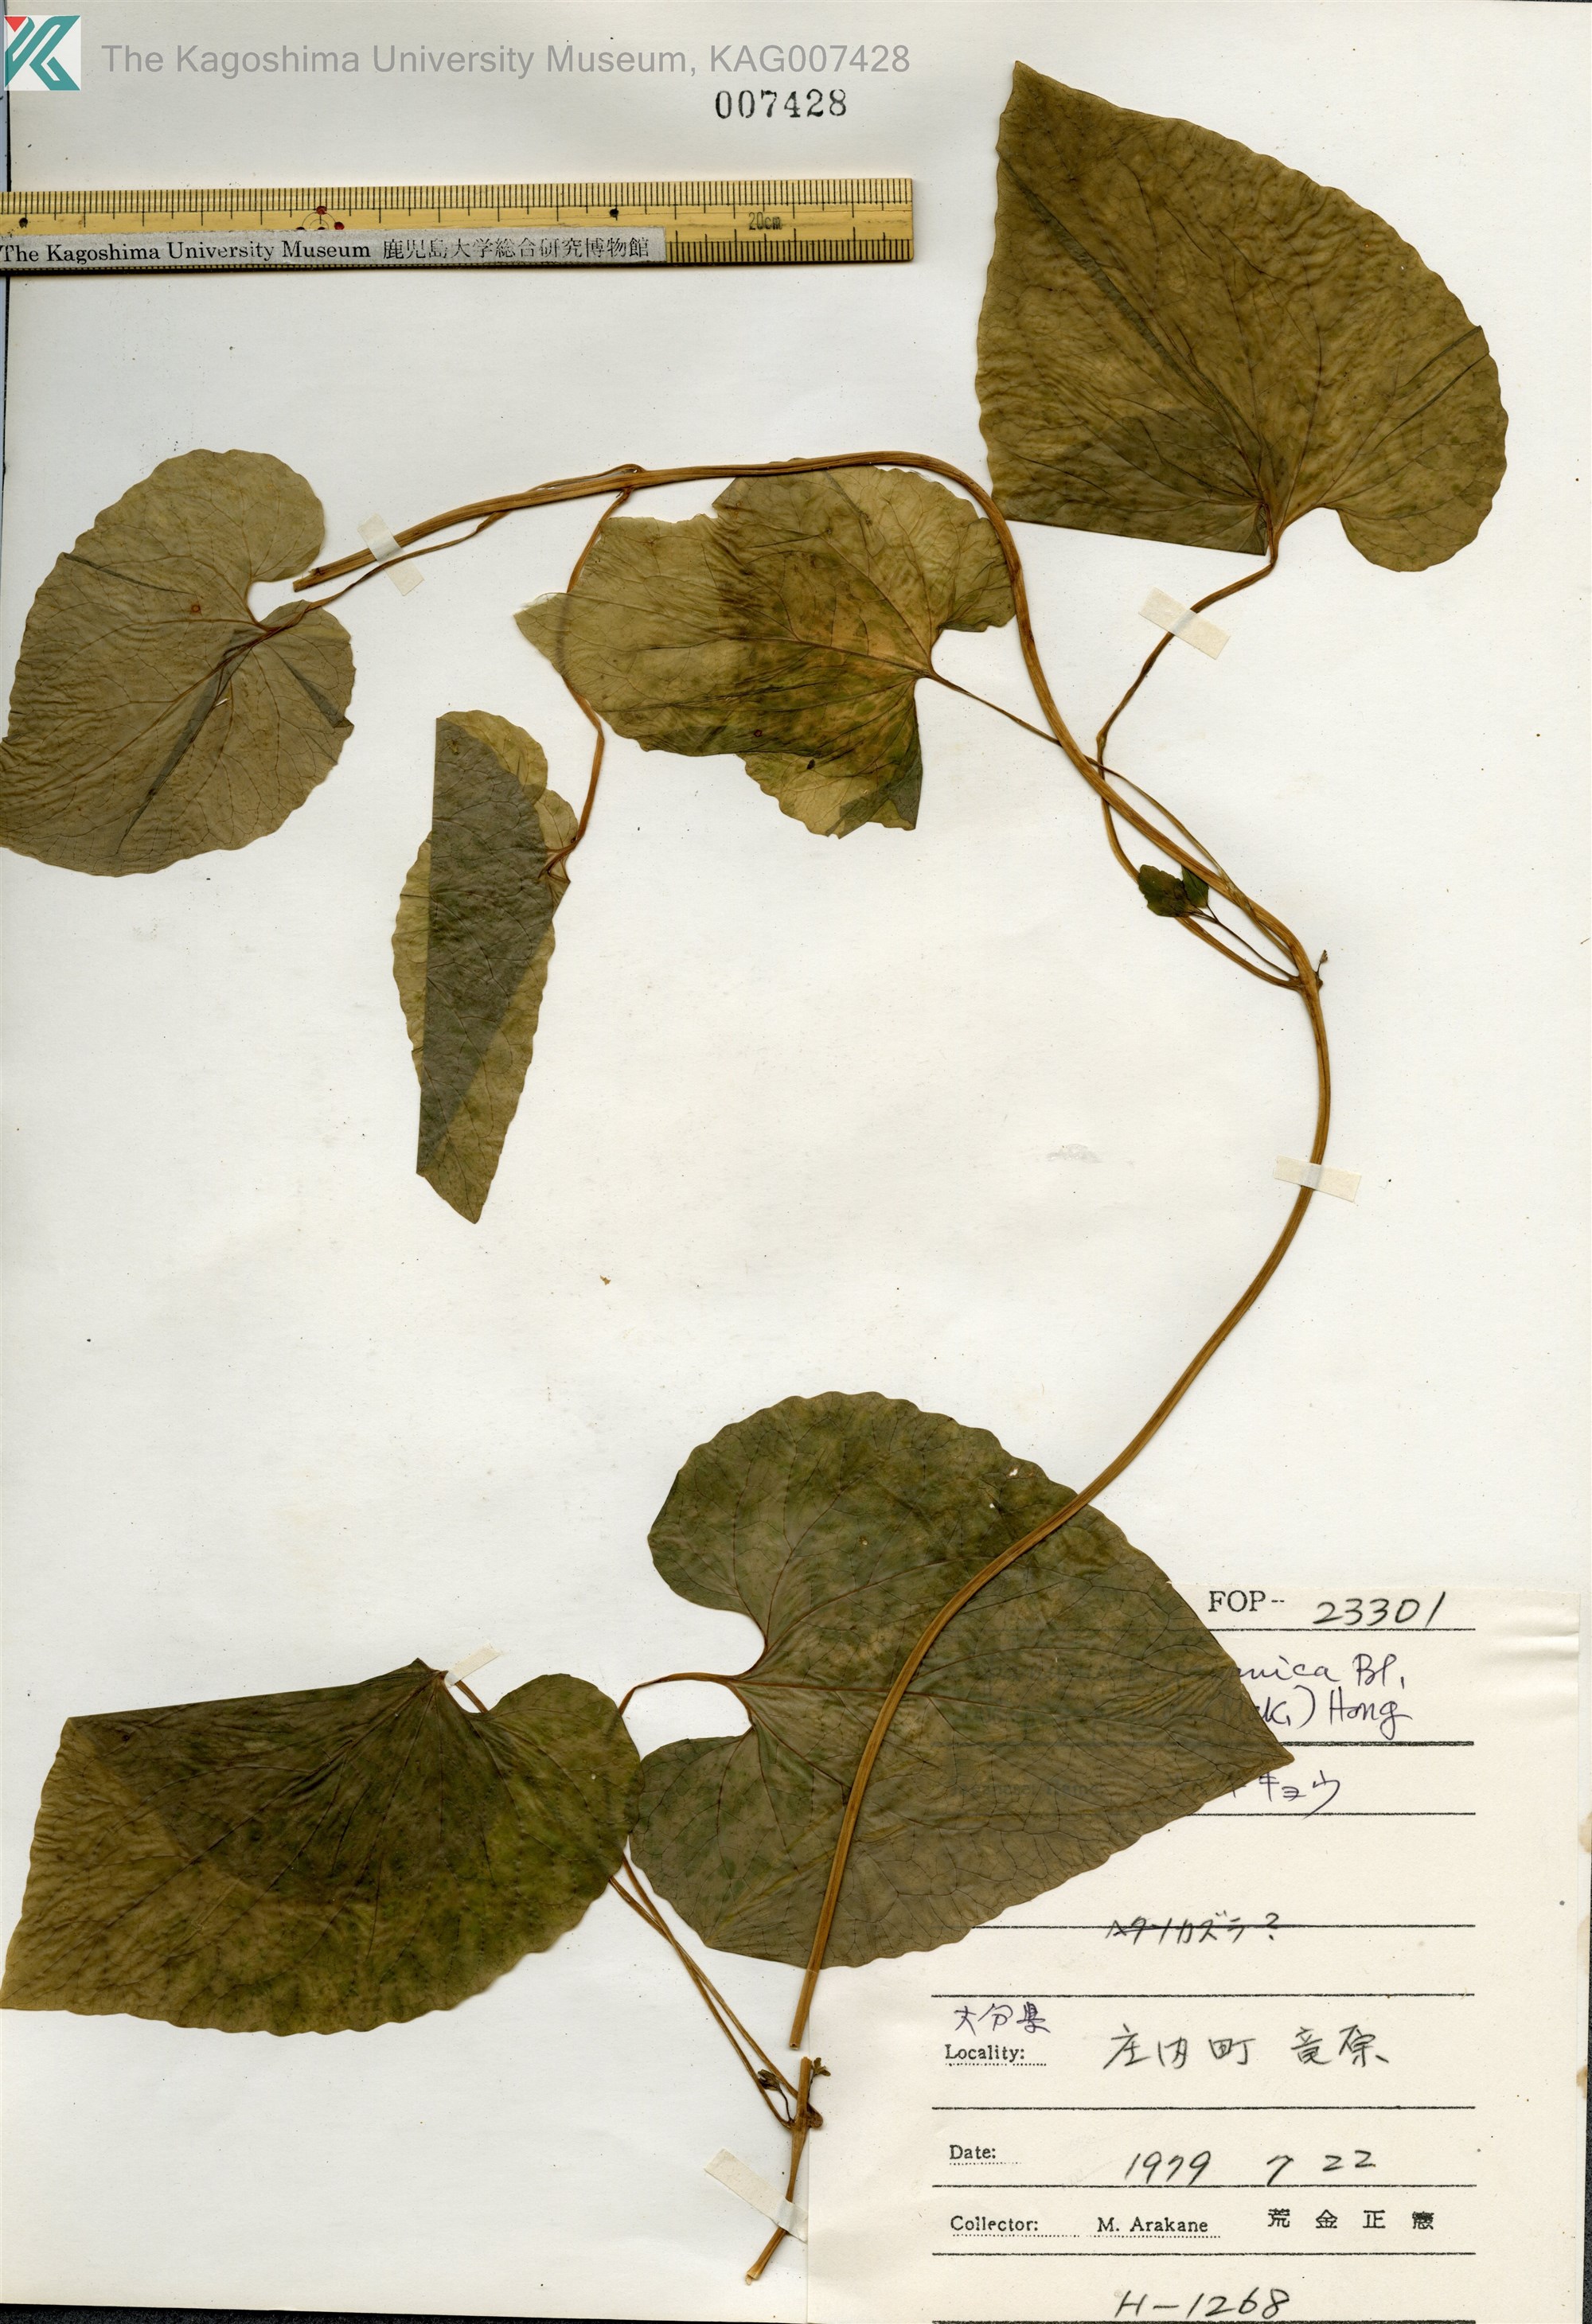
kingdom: Plantae
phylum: Tracheophyta
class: Magnoliopsida
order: Asterales
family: Campanulaceae
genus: Codonopsis
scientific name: Codonopsis javanica
